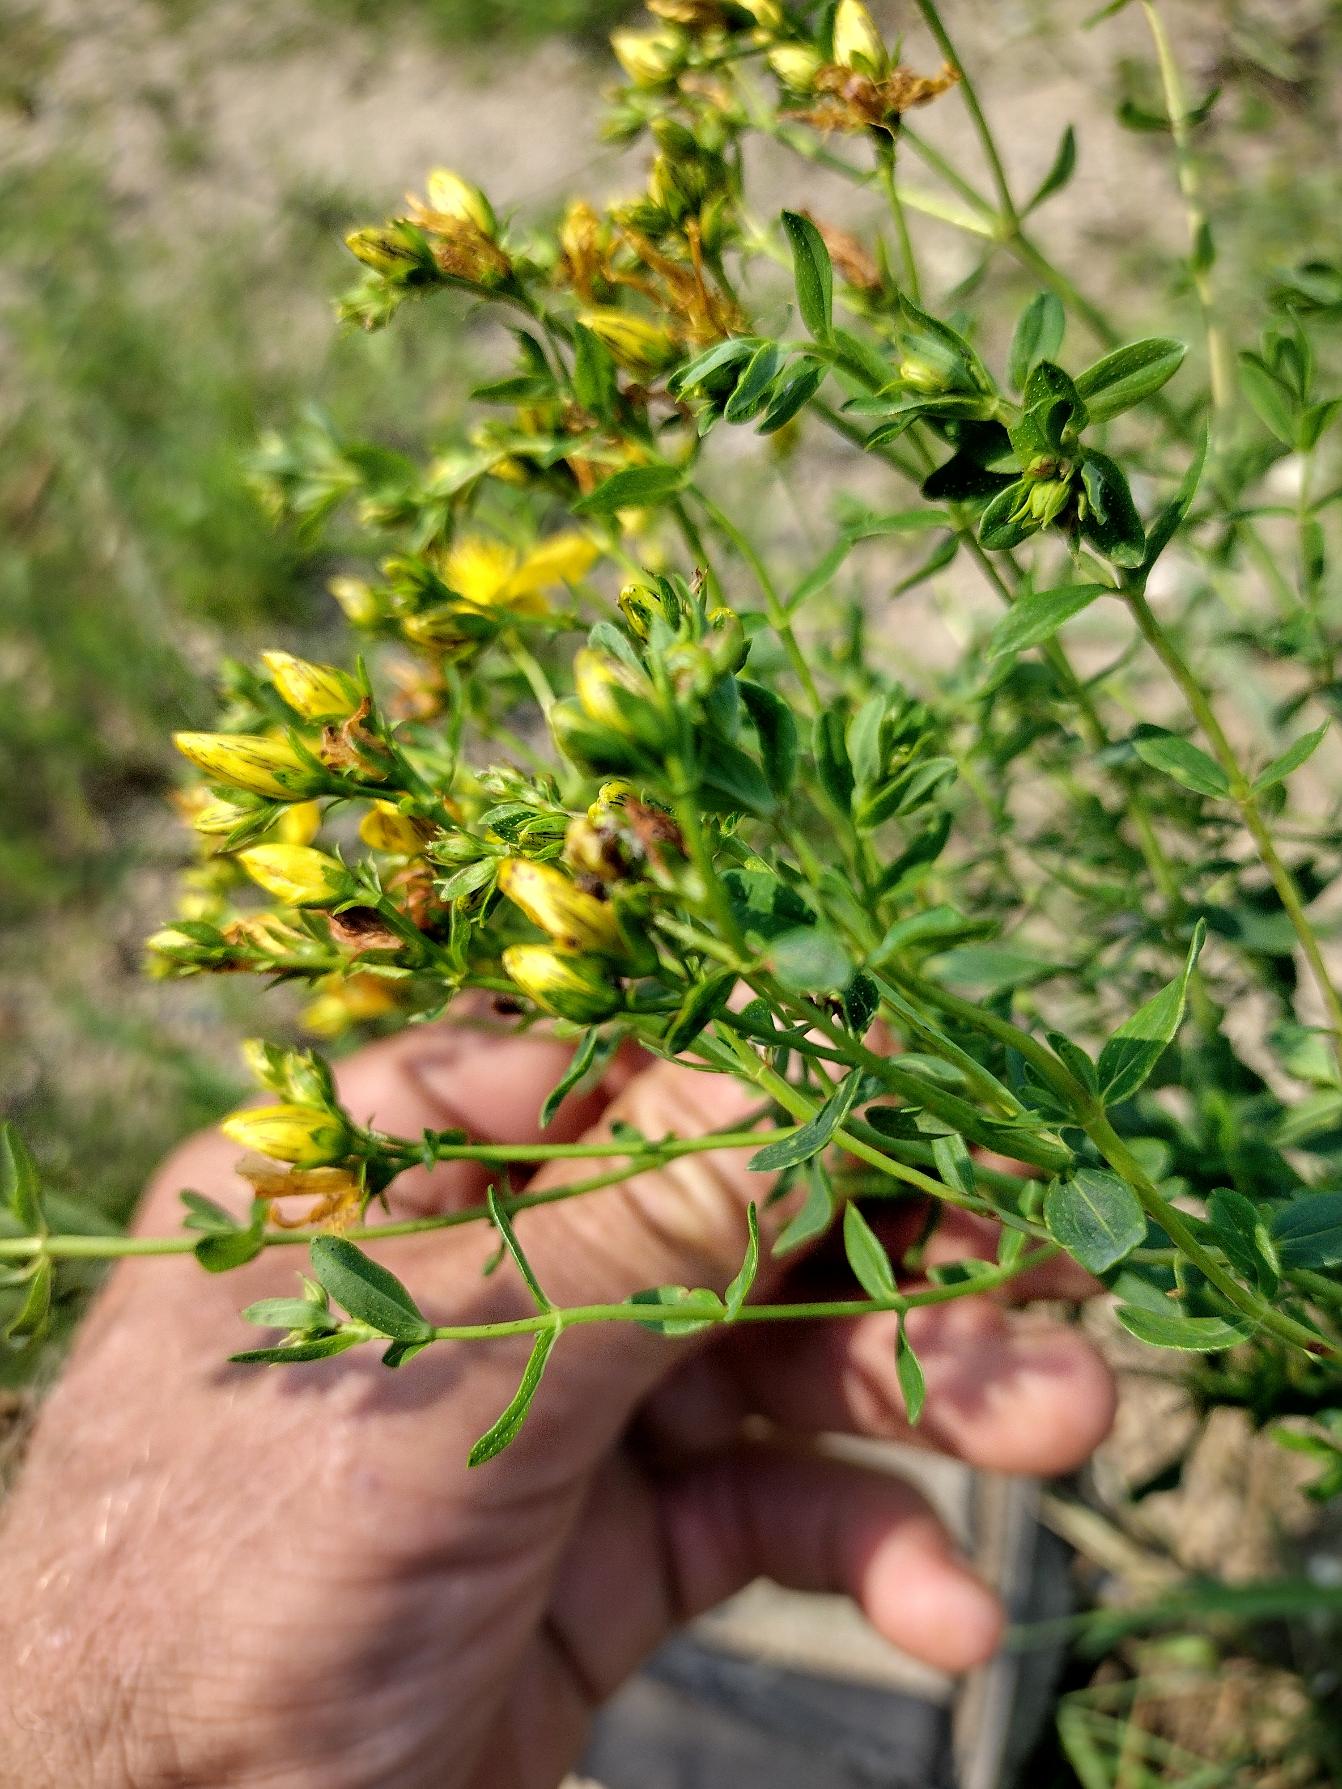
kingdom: Plantae
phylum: Tracheophyta
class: Magnoliopsida
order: Malpighiales
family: Hypericaceae
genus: Hypericum
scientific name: Hypericum perforatum
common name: Prikbladet perikon
